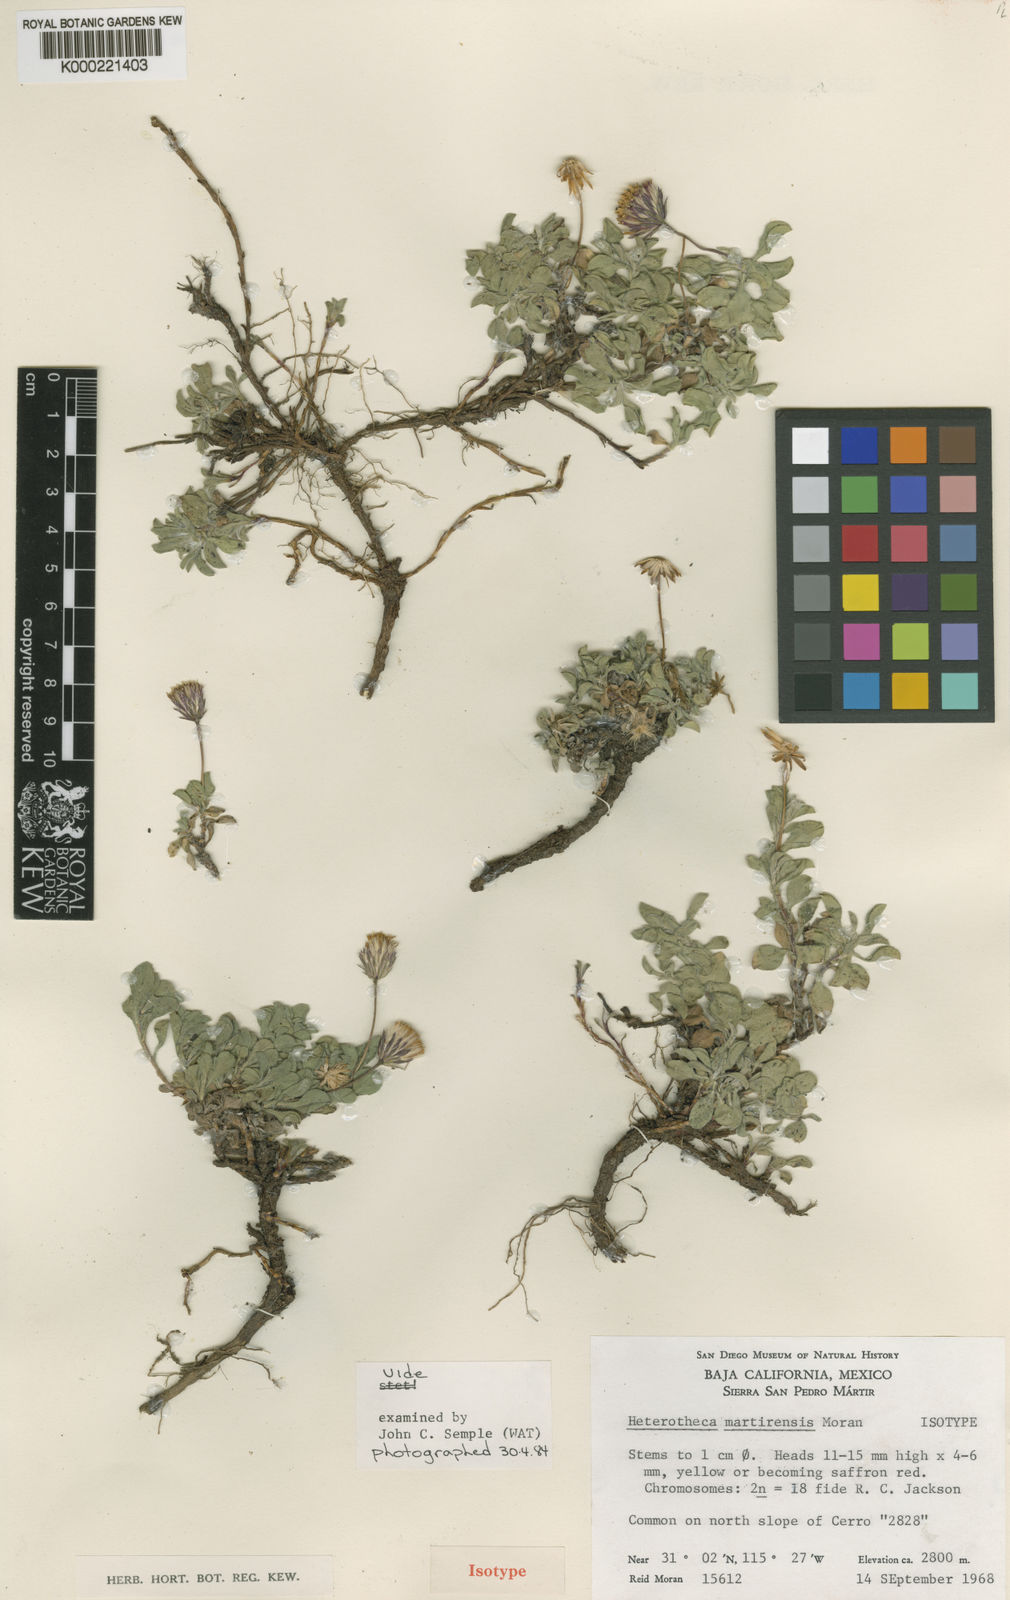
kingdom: Plantae
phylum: Tracheophyta
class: Magnoliopsida
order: Asterales
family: Asteraceae
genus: Heterotheca
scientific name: Heterotheca brandegeei
